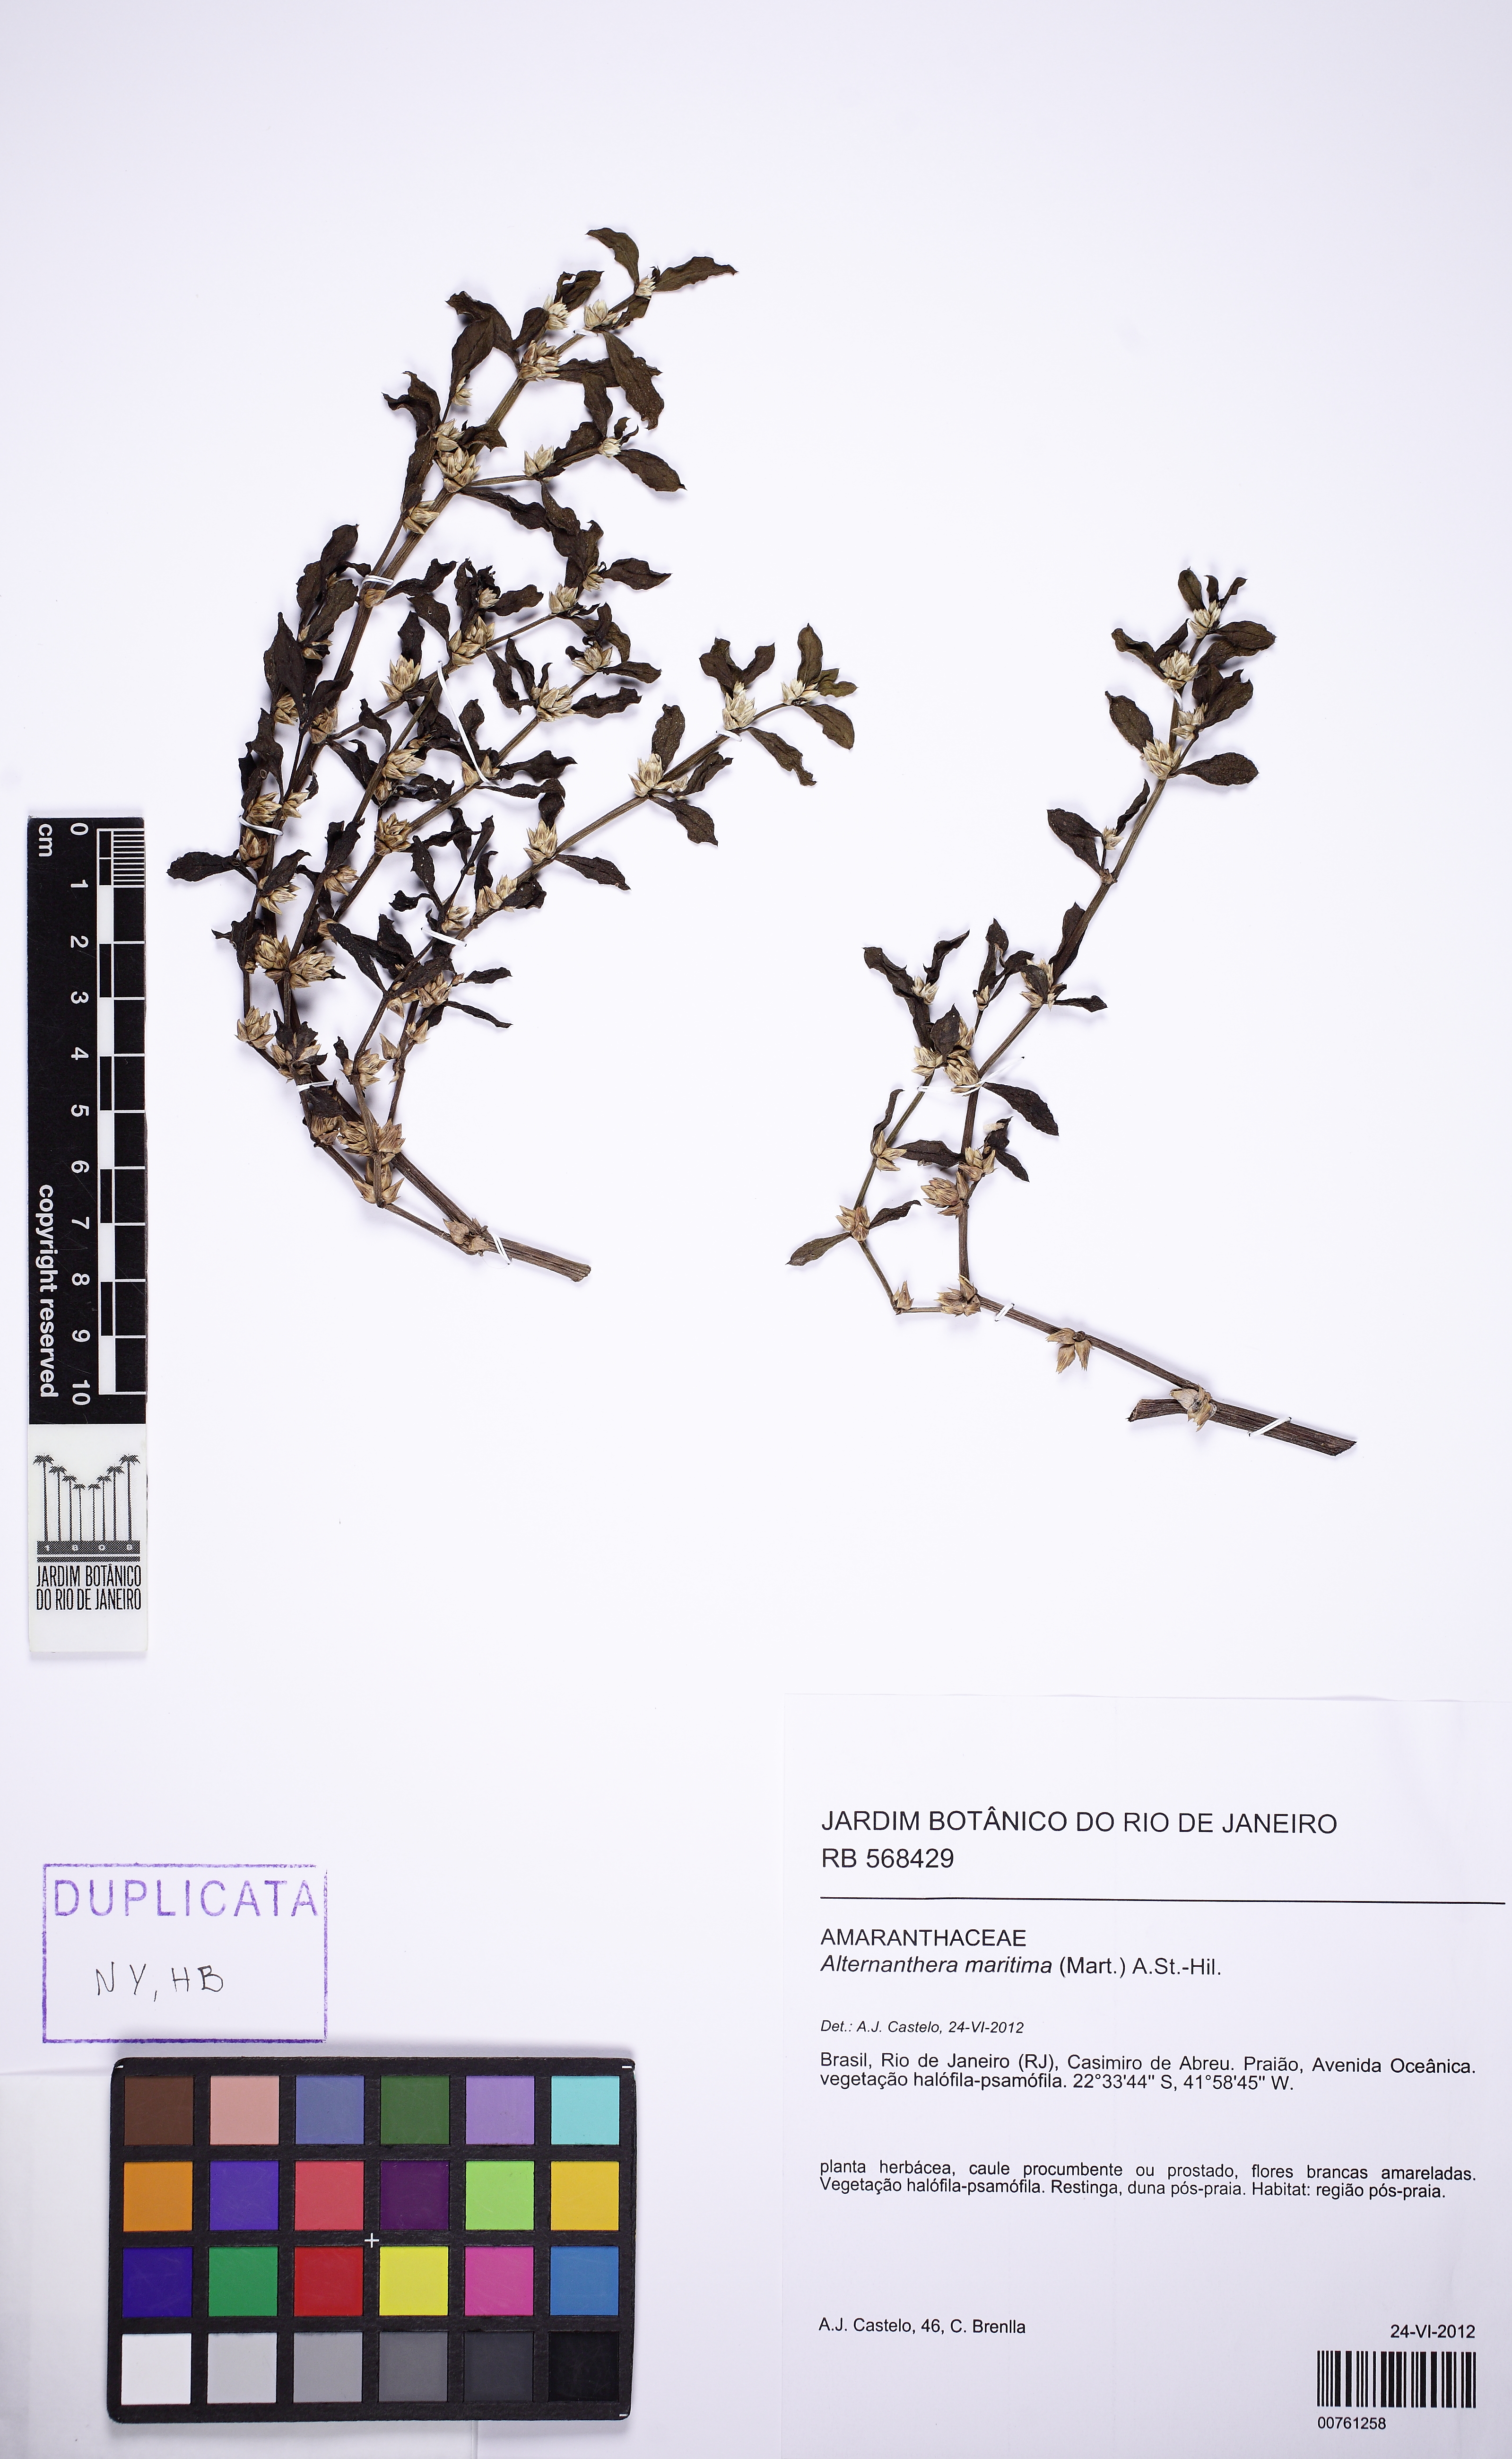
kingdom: Plantae
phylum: Tracheophyta
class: Magnoliopsida
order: Caryophyllales
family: Amaranthaceae
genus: Alternanthera
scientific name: Alternanthera littoralis
